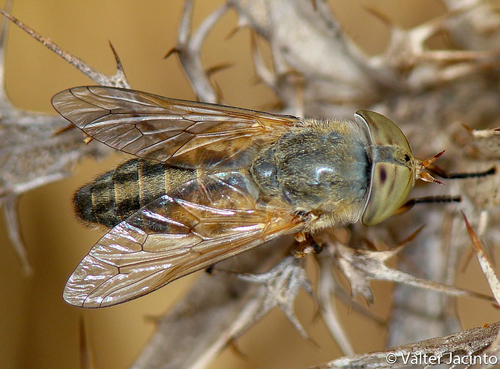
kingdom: Animalia
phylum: Arthropoda
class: Insecta
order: Diptera
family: Tabanidae
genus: Atylotus
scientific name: Atylotus quadrifarius
